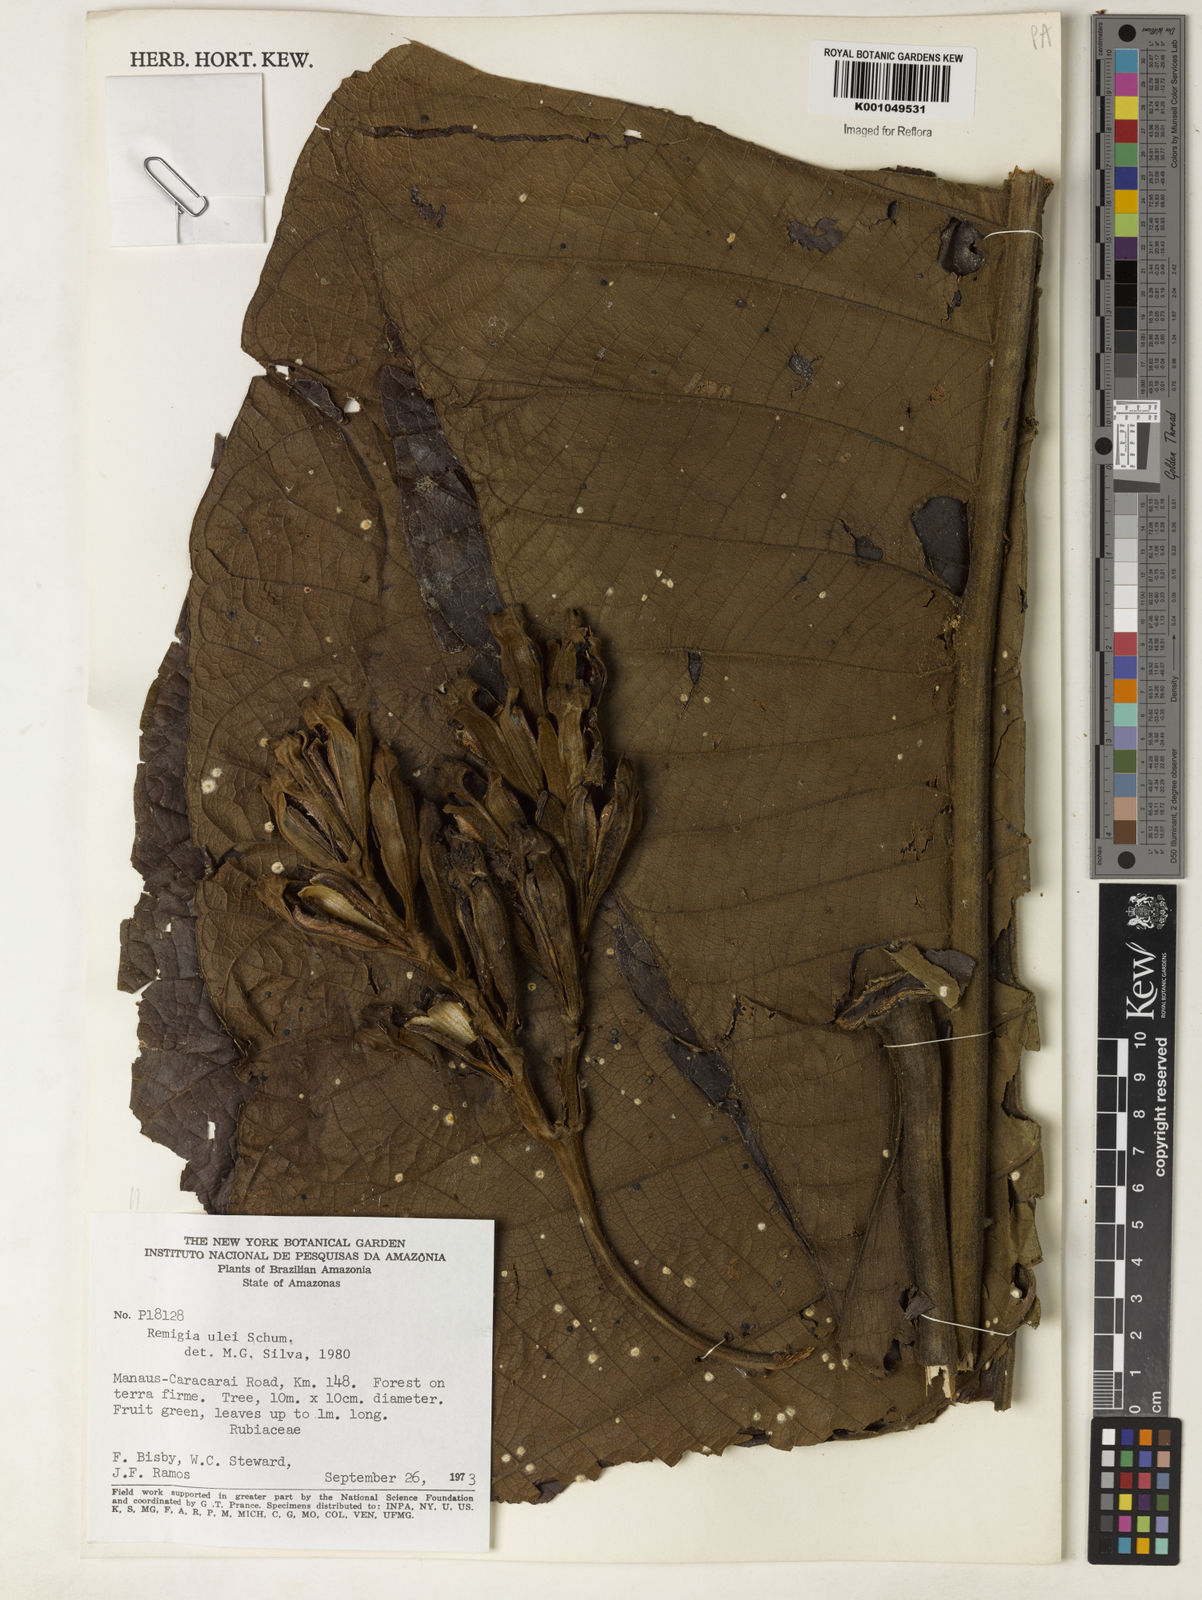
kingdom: Plantae
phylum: Tracheophyta
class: Magnoliopsida
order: Gentianales
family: Rubiaceae
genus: Remijia
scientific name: Remijia ulei
